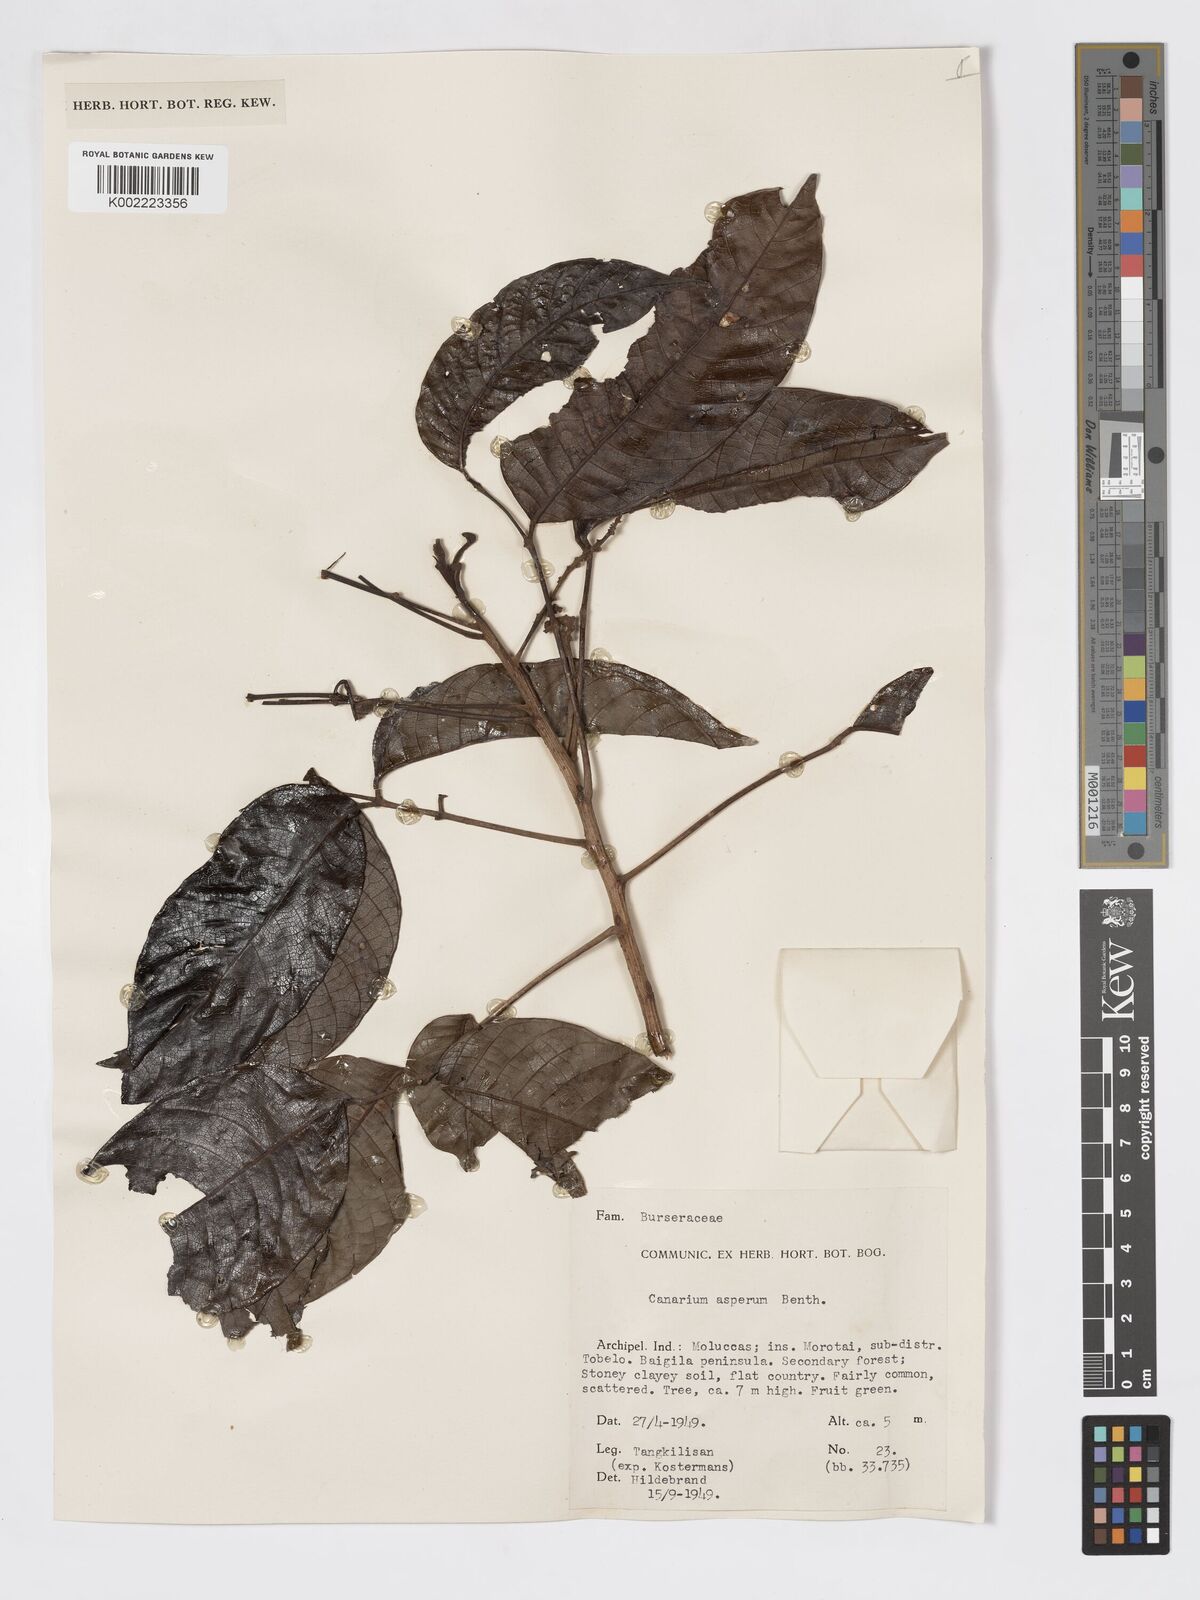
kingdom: Plantae
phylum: Tracheophyta
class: Magnoliopsida
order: Sapindales
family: Burseraceae
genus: Canarium
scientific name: Canarium asperum
